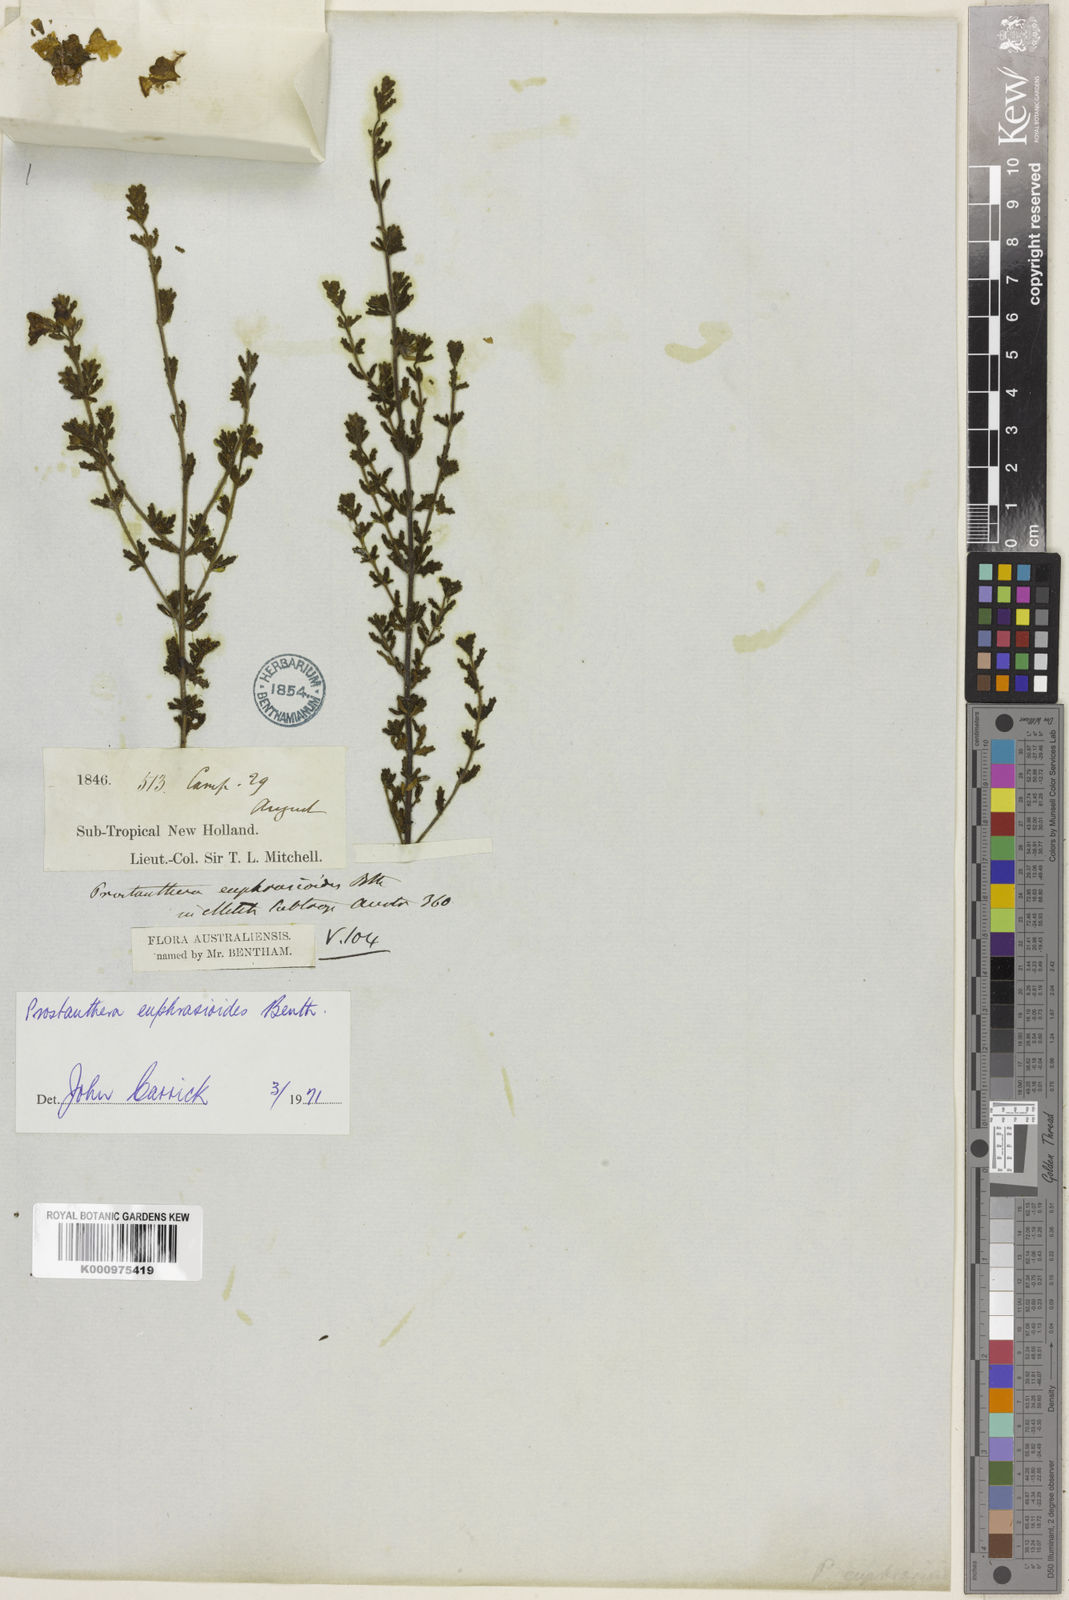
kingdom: Plantae
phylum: Tracheophyta
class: Magnoliopsida
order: Lamiales
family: Lamiaceae
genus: Prostanthera
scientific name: Prostanthera cryptandroides
